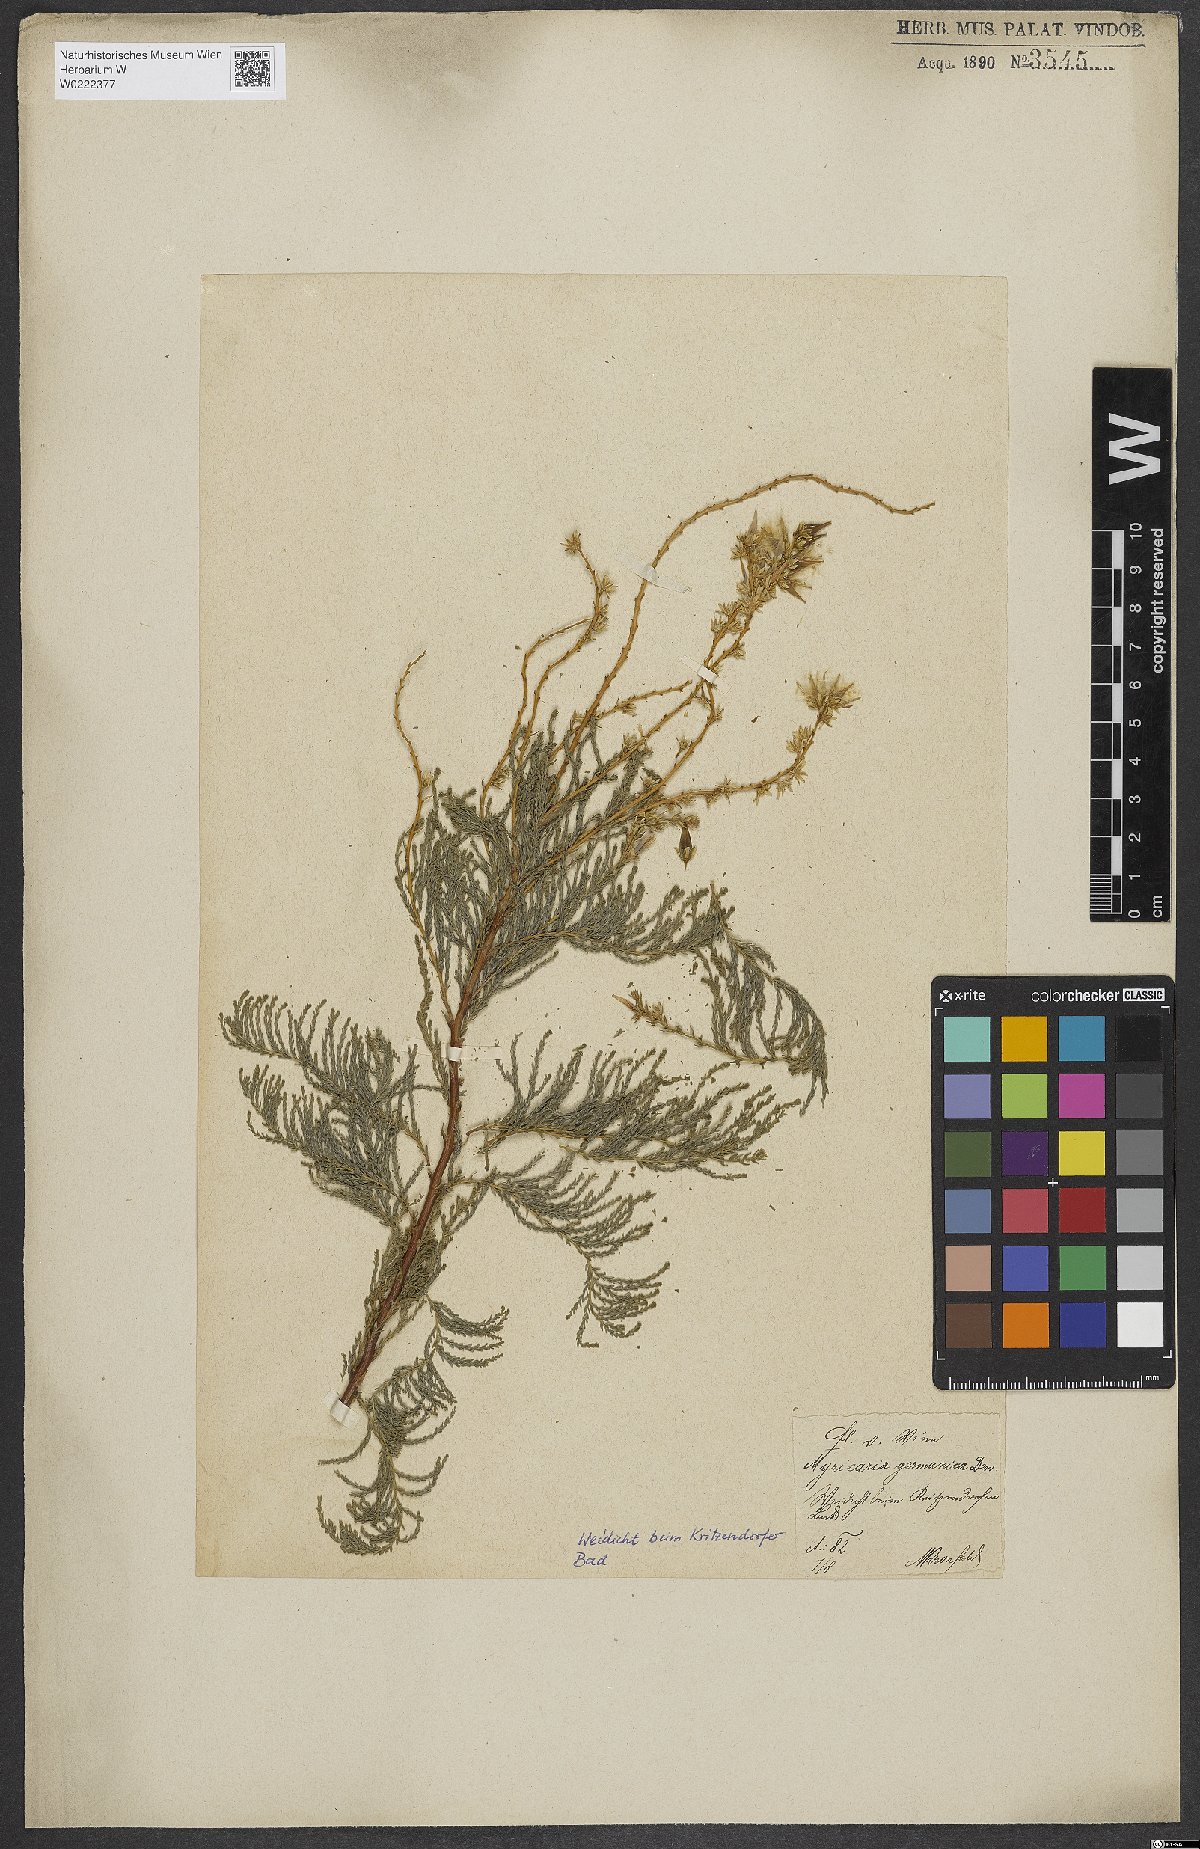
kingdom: Plantae
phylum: Tracheophyta
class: Magnoliopsida
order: Caryophyllales
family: Tamaricaceae
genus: Myricaria
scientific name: Myricaria germanica
